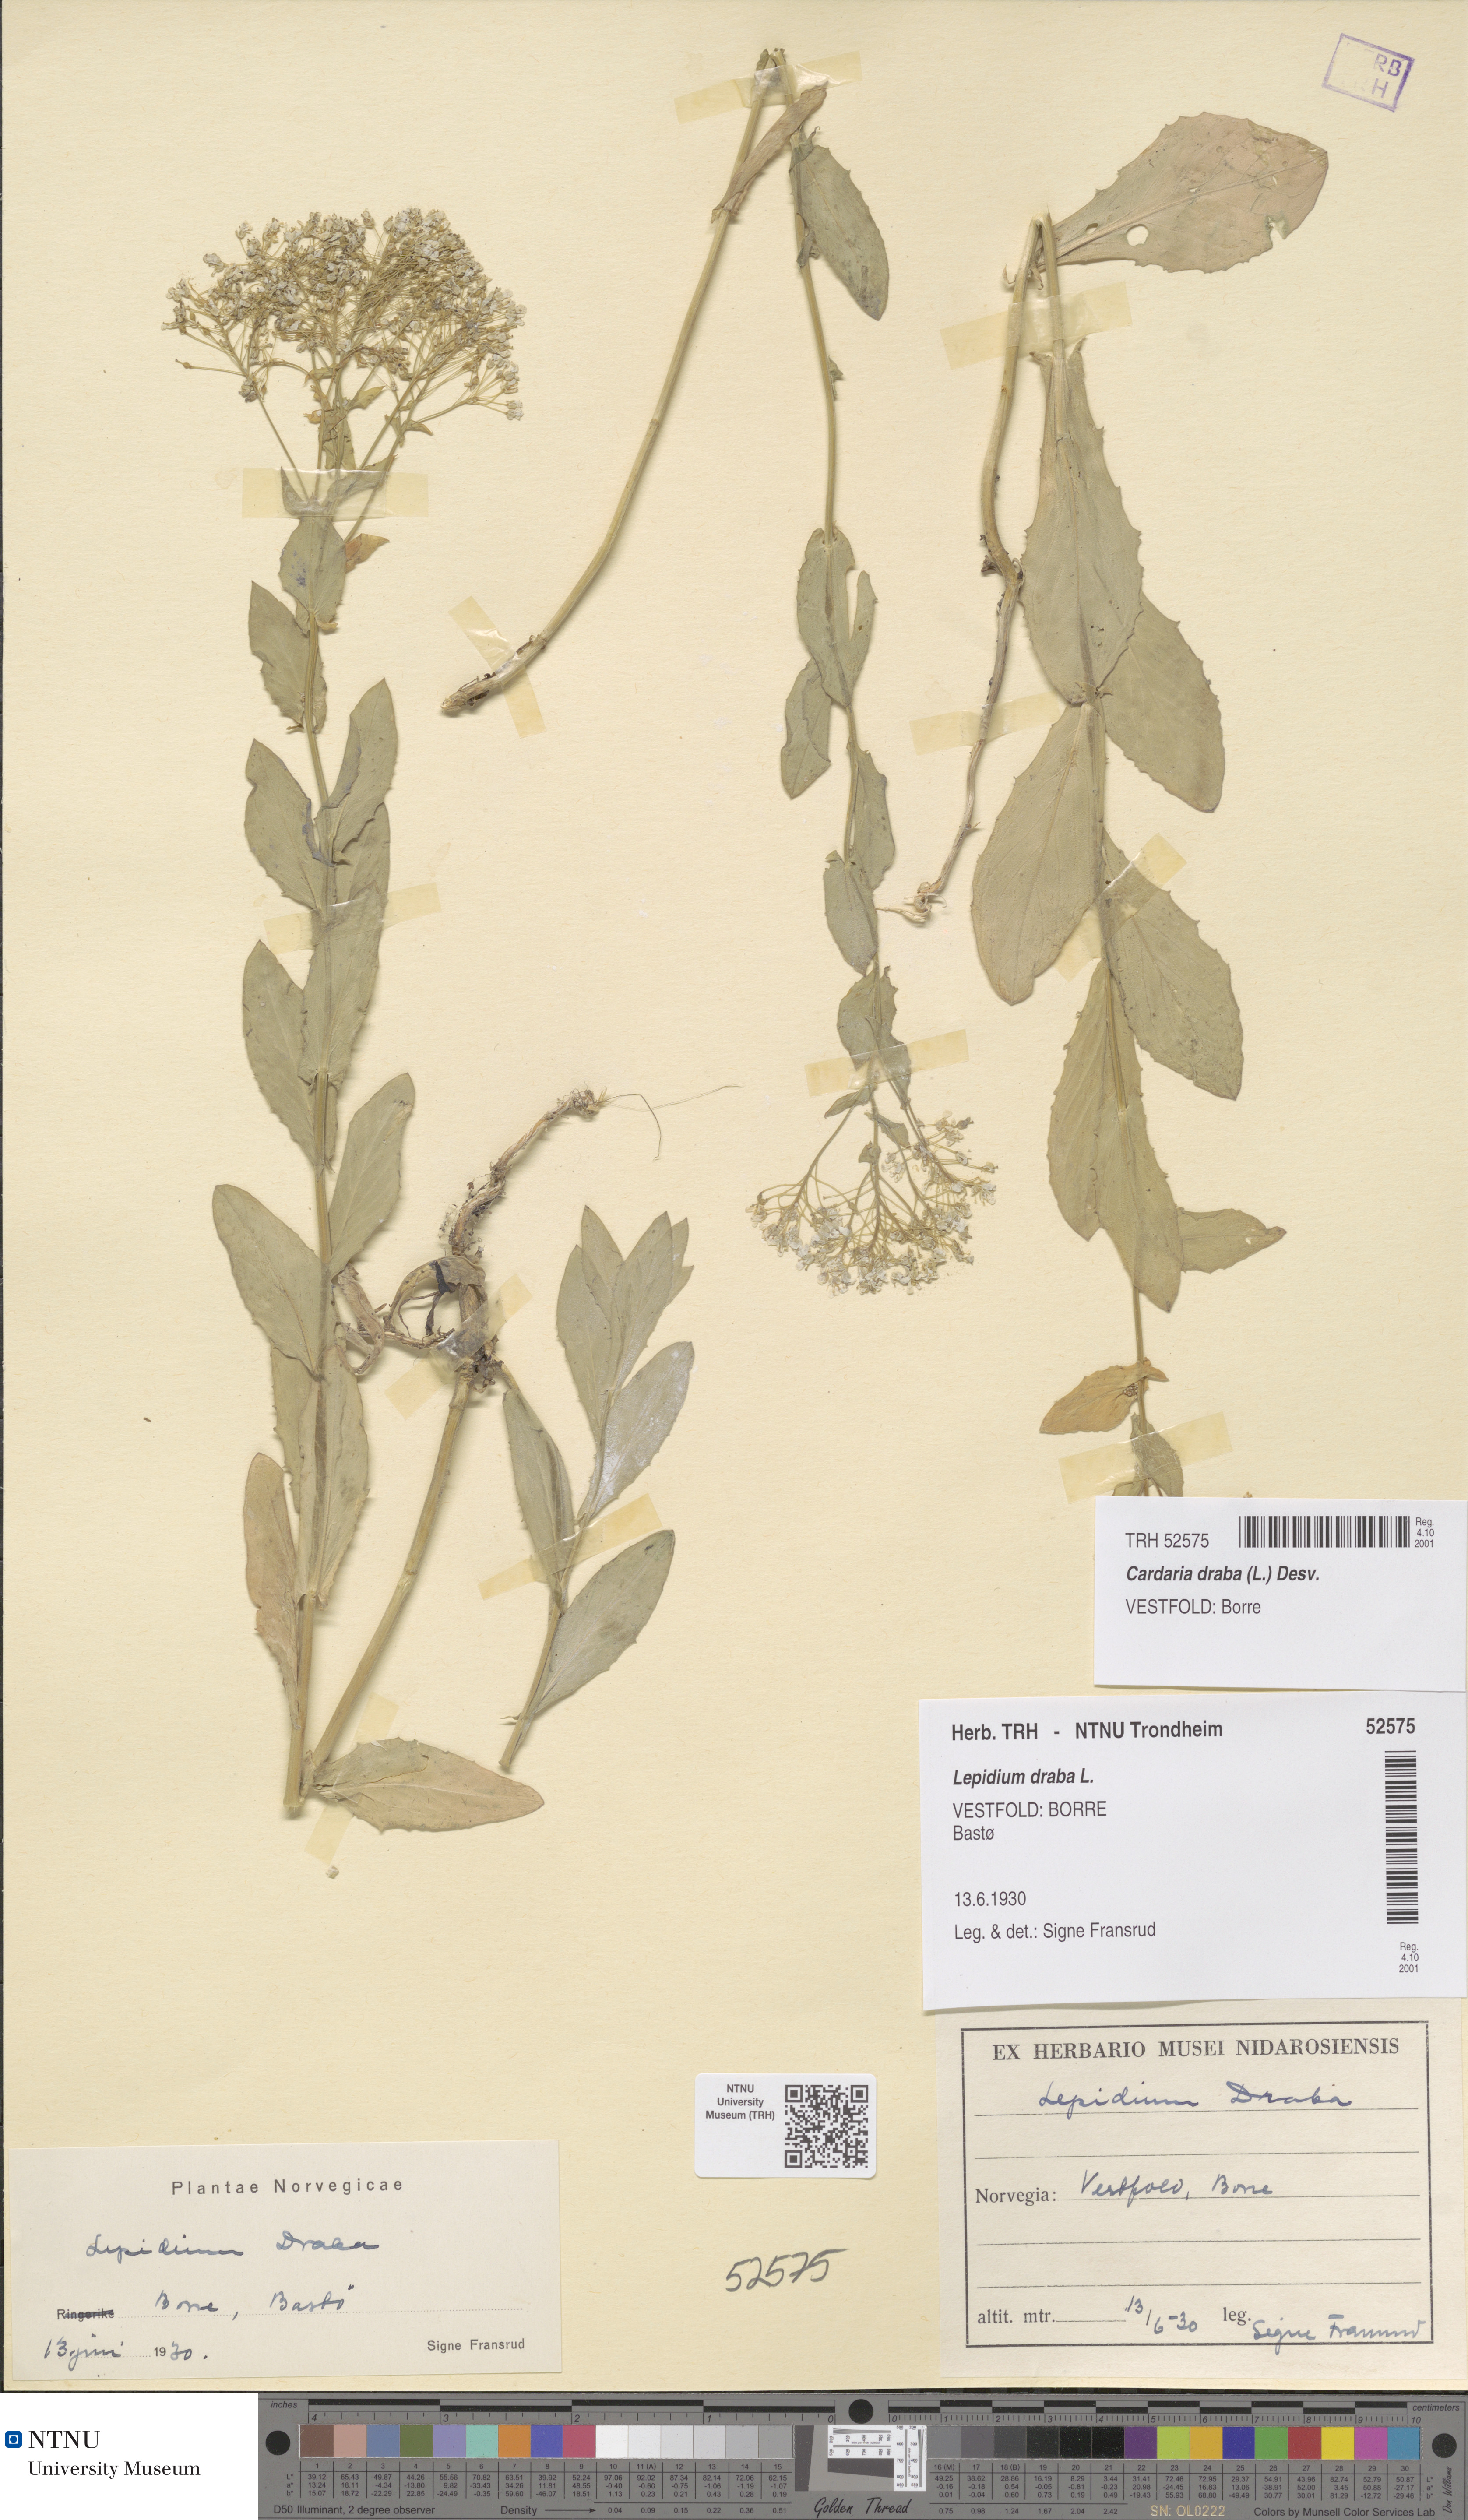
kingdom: Plantae
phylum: Tracheophyta
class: Magnoliopsida
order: Brassicales
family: Brassicaceae
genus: Lepidium
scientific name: Lepidium draba
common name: Hoary cress
